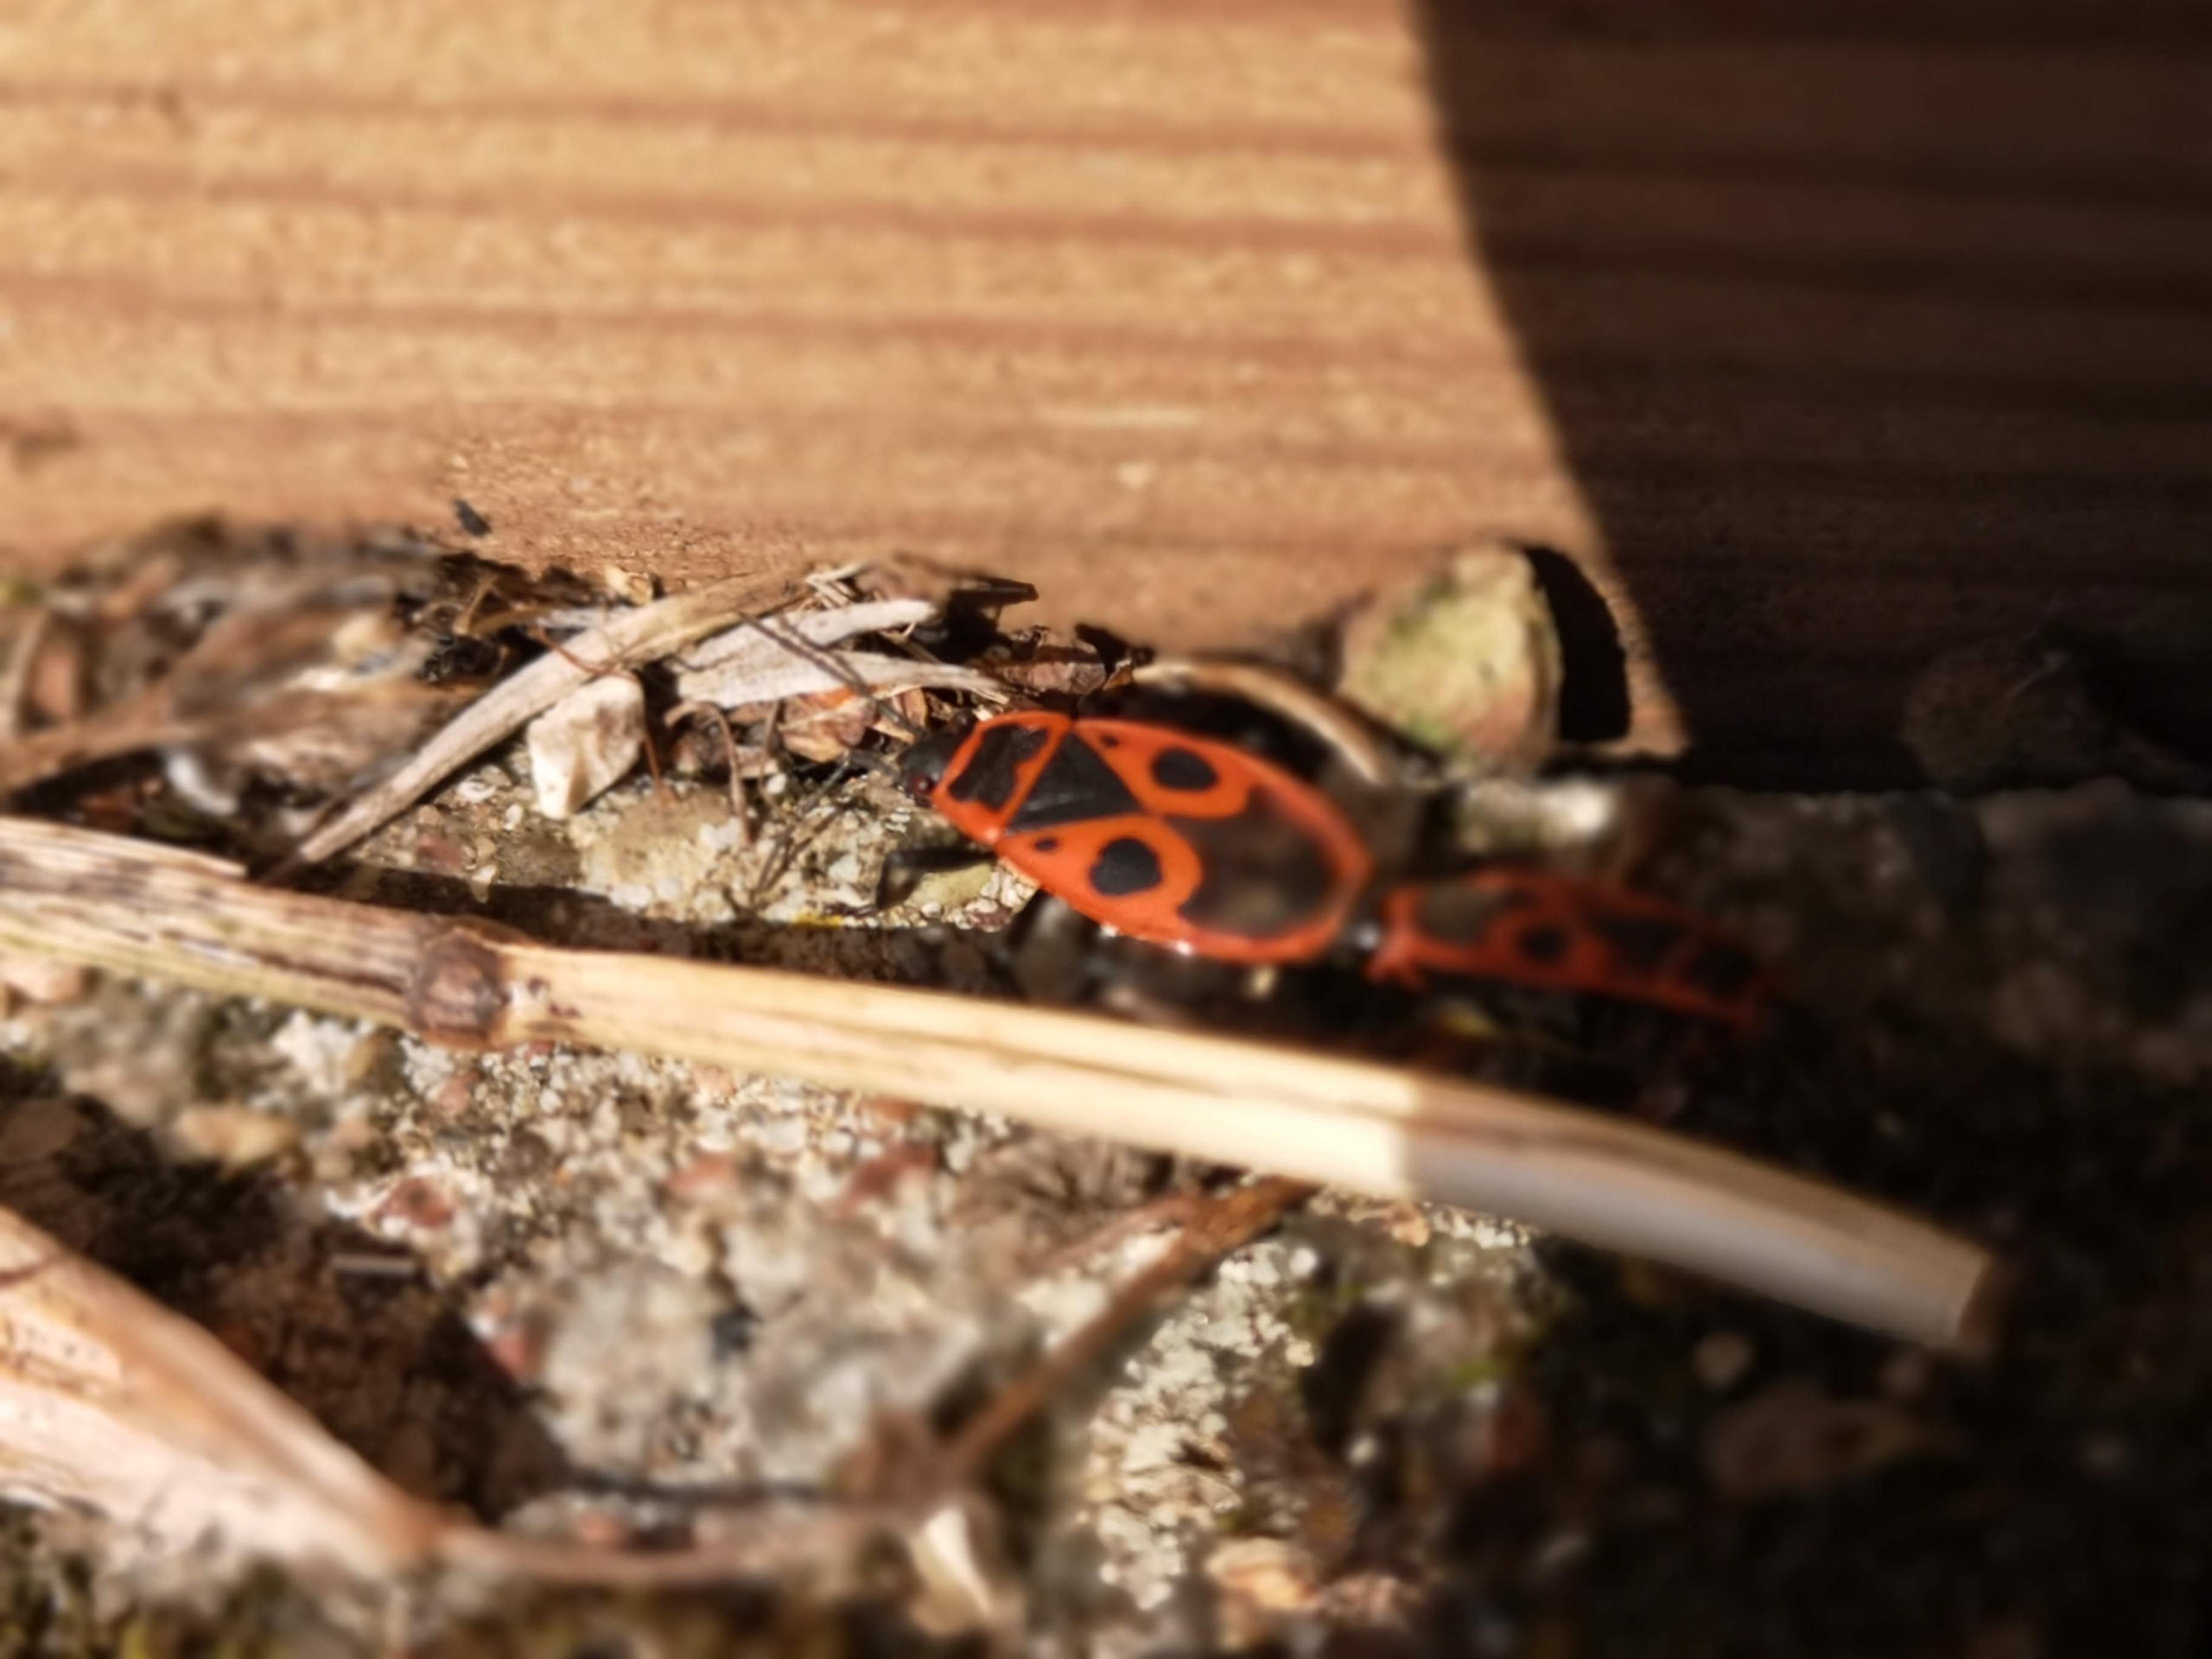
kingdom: Animalia
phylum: Arthropoda
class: Insecta
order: Hemiptera
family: Pyrrhocoridae
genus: Pyrrhocoris
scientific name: Pyrrhocoris apterus
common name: Ildtæge
